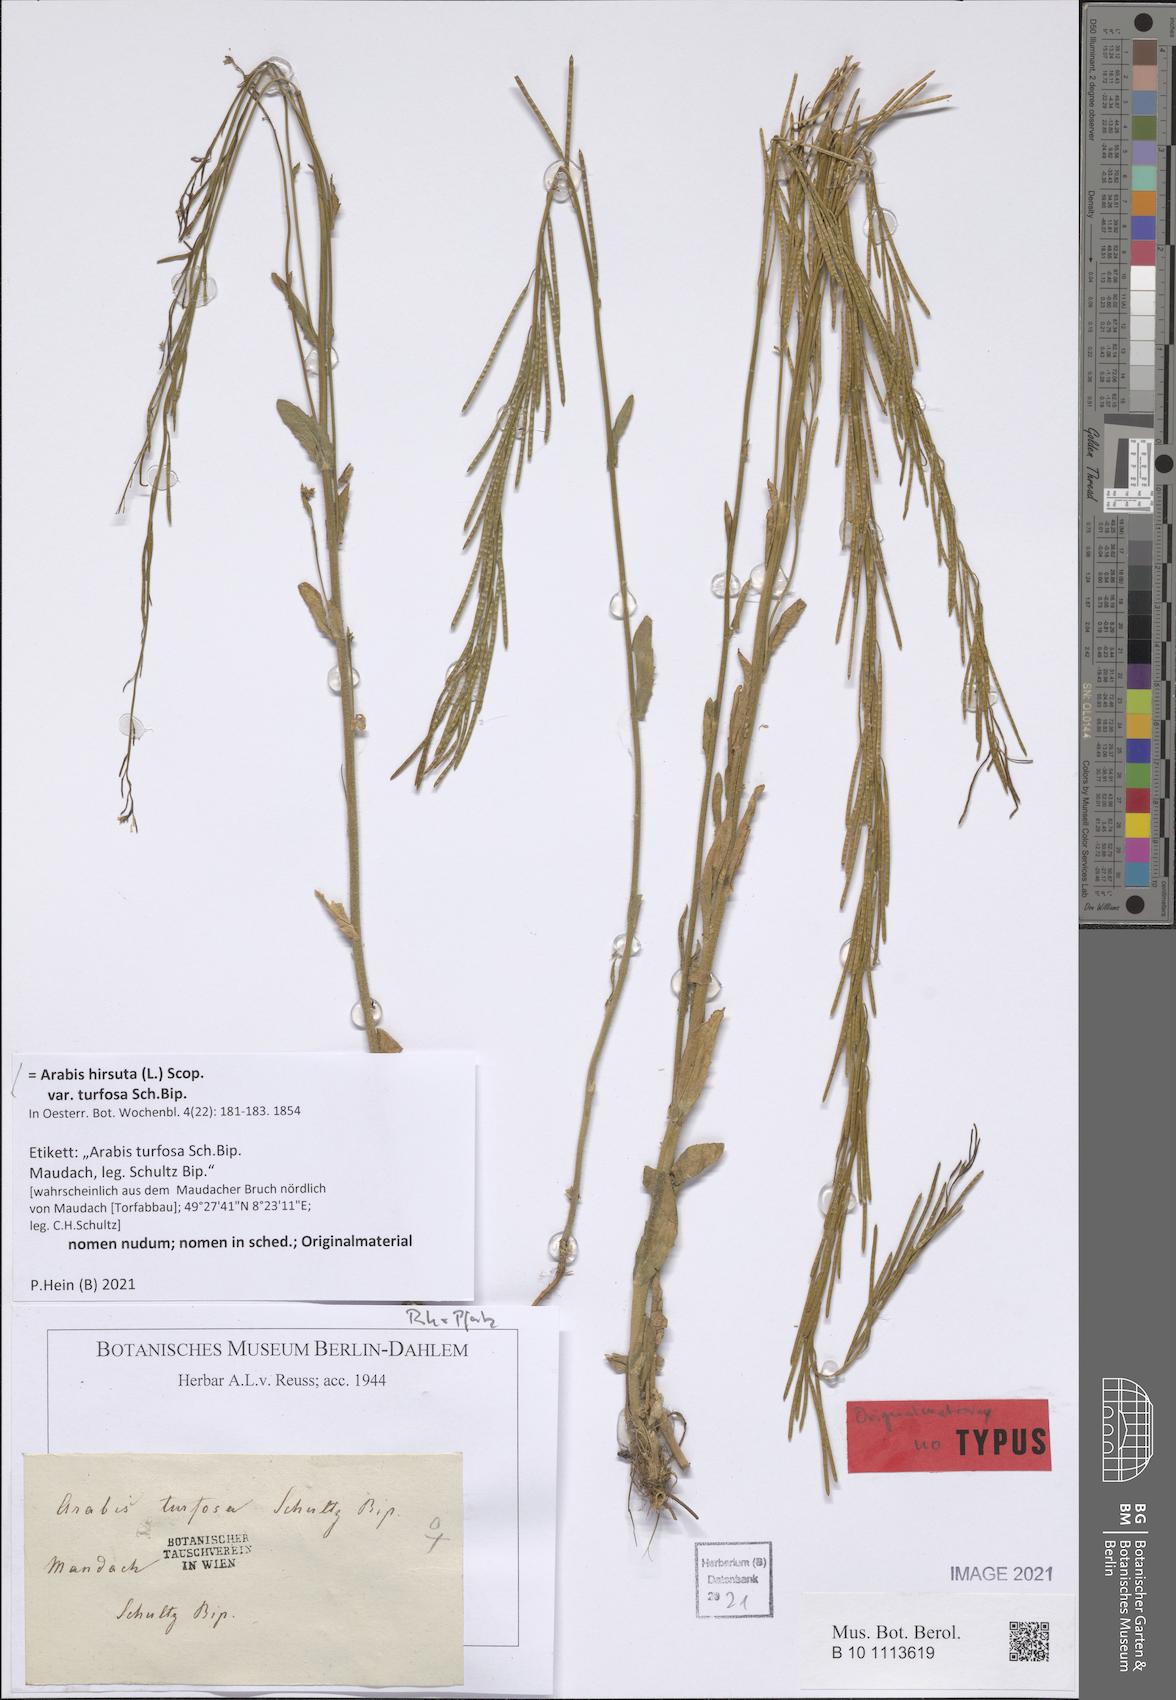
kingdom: Plantae
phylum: Tracheophyta
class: Magnoliopsida
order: Brassicales
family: Brassicaceae
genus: Arabis
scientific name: Arabis hirsuta
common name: Hairy rock-cress
